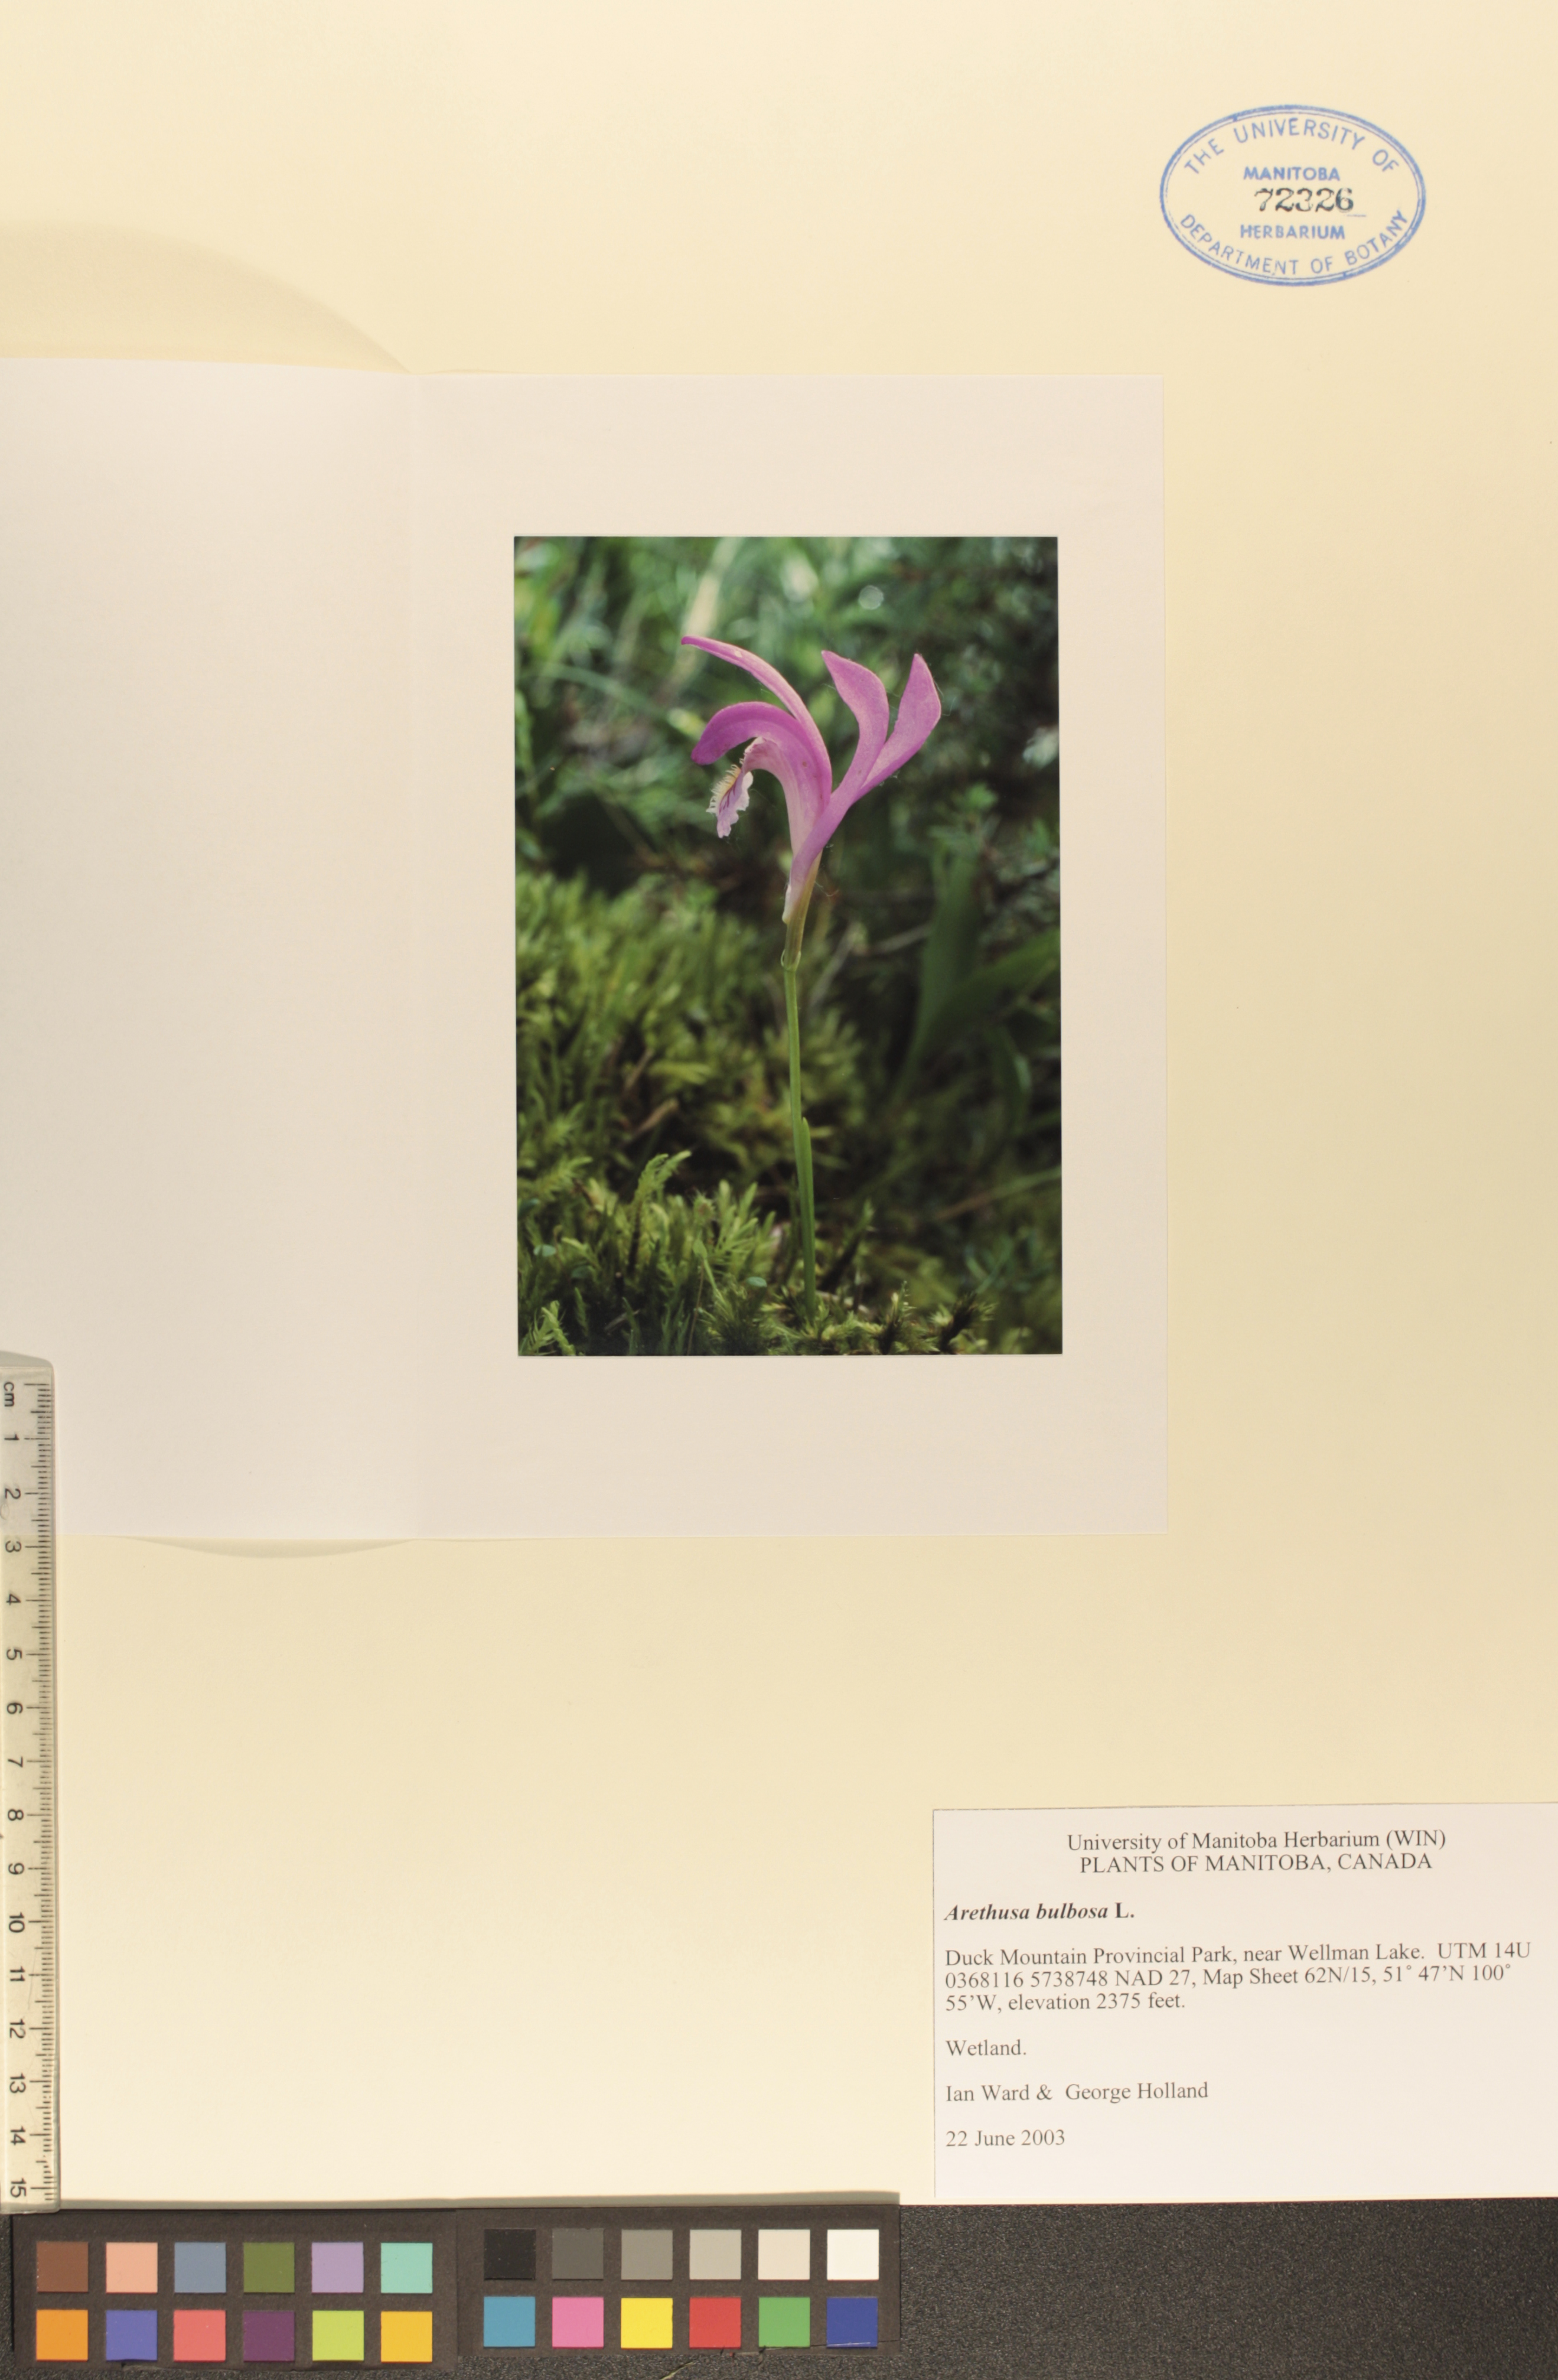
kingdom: Plantae
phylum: Tracheophyta
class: Liliopsida
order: Asparagales
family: Orchidaceae
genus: Arethusa
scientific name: Arethusa bulbosa
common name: Arethusa
